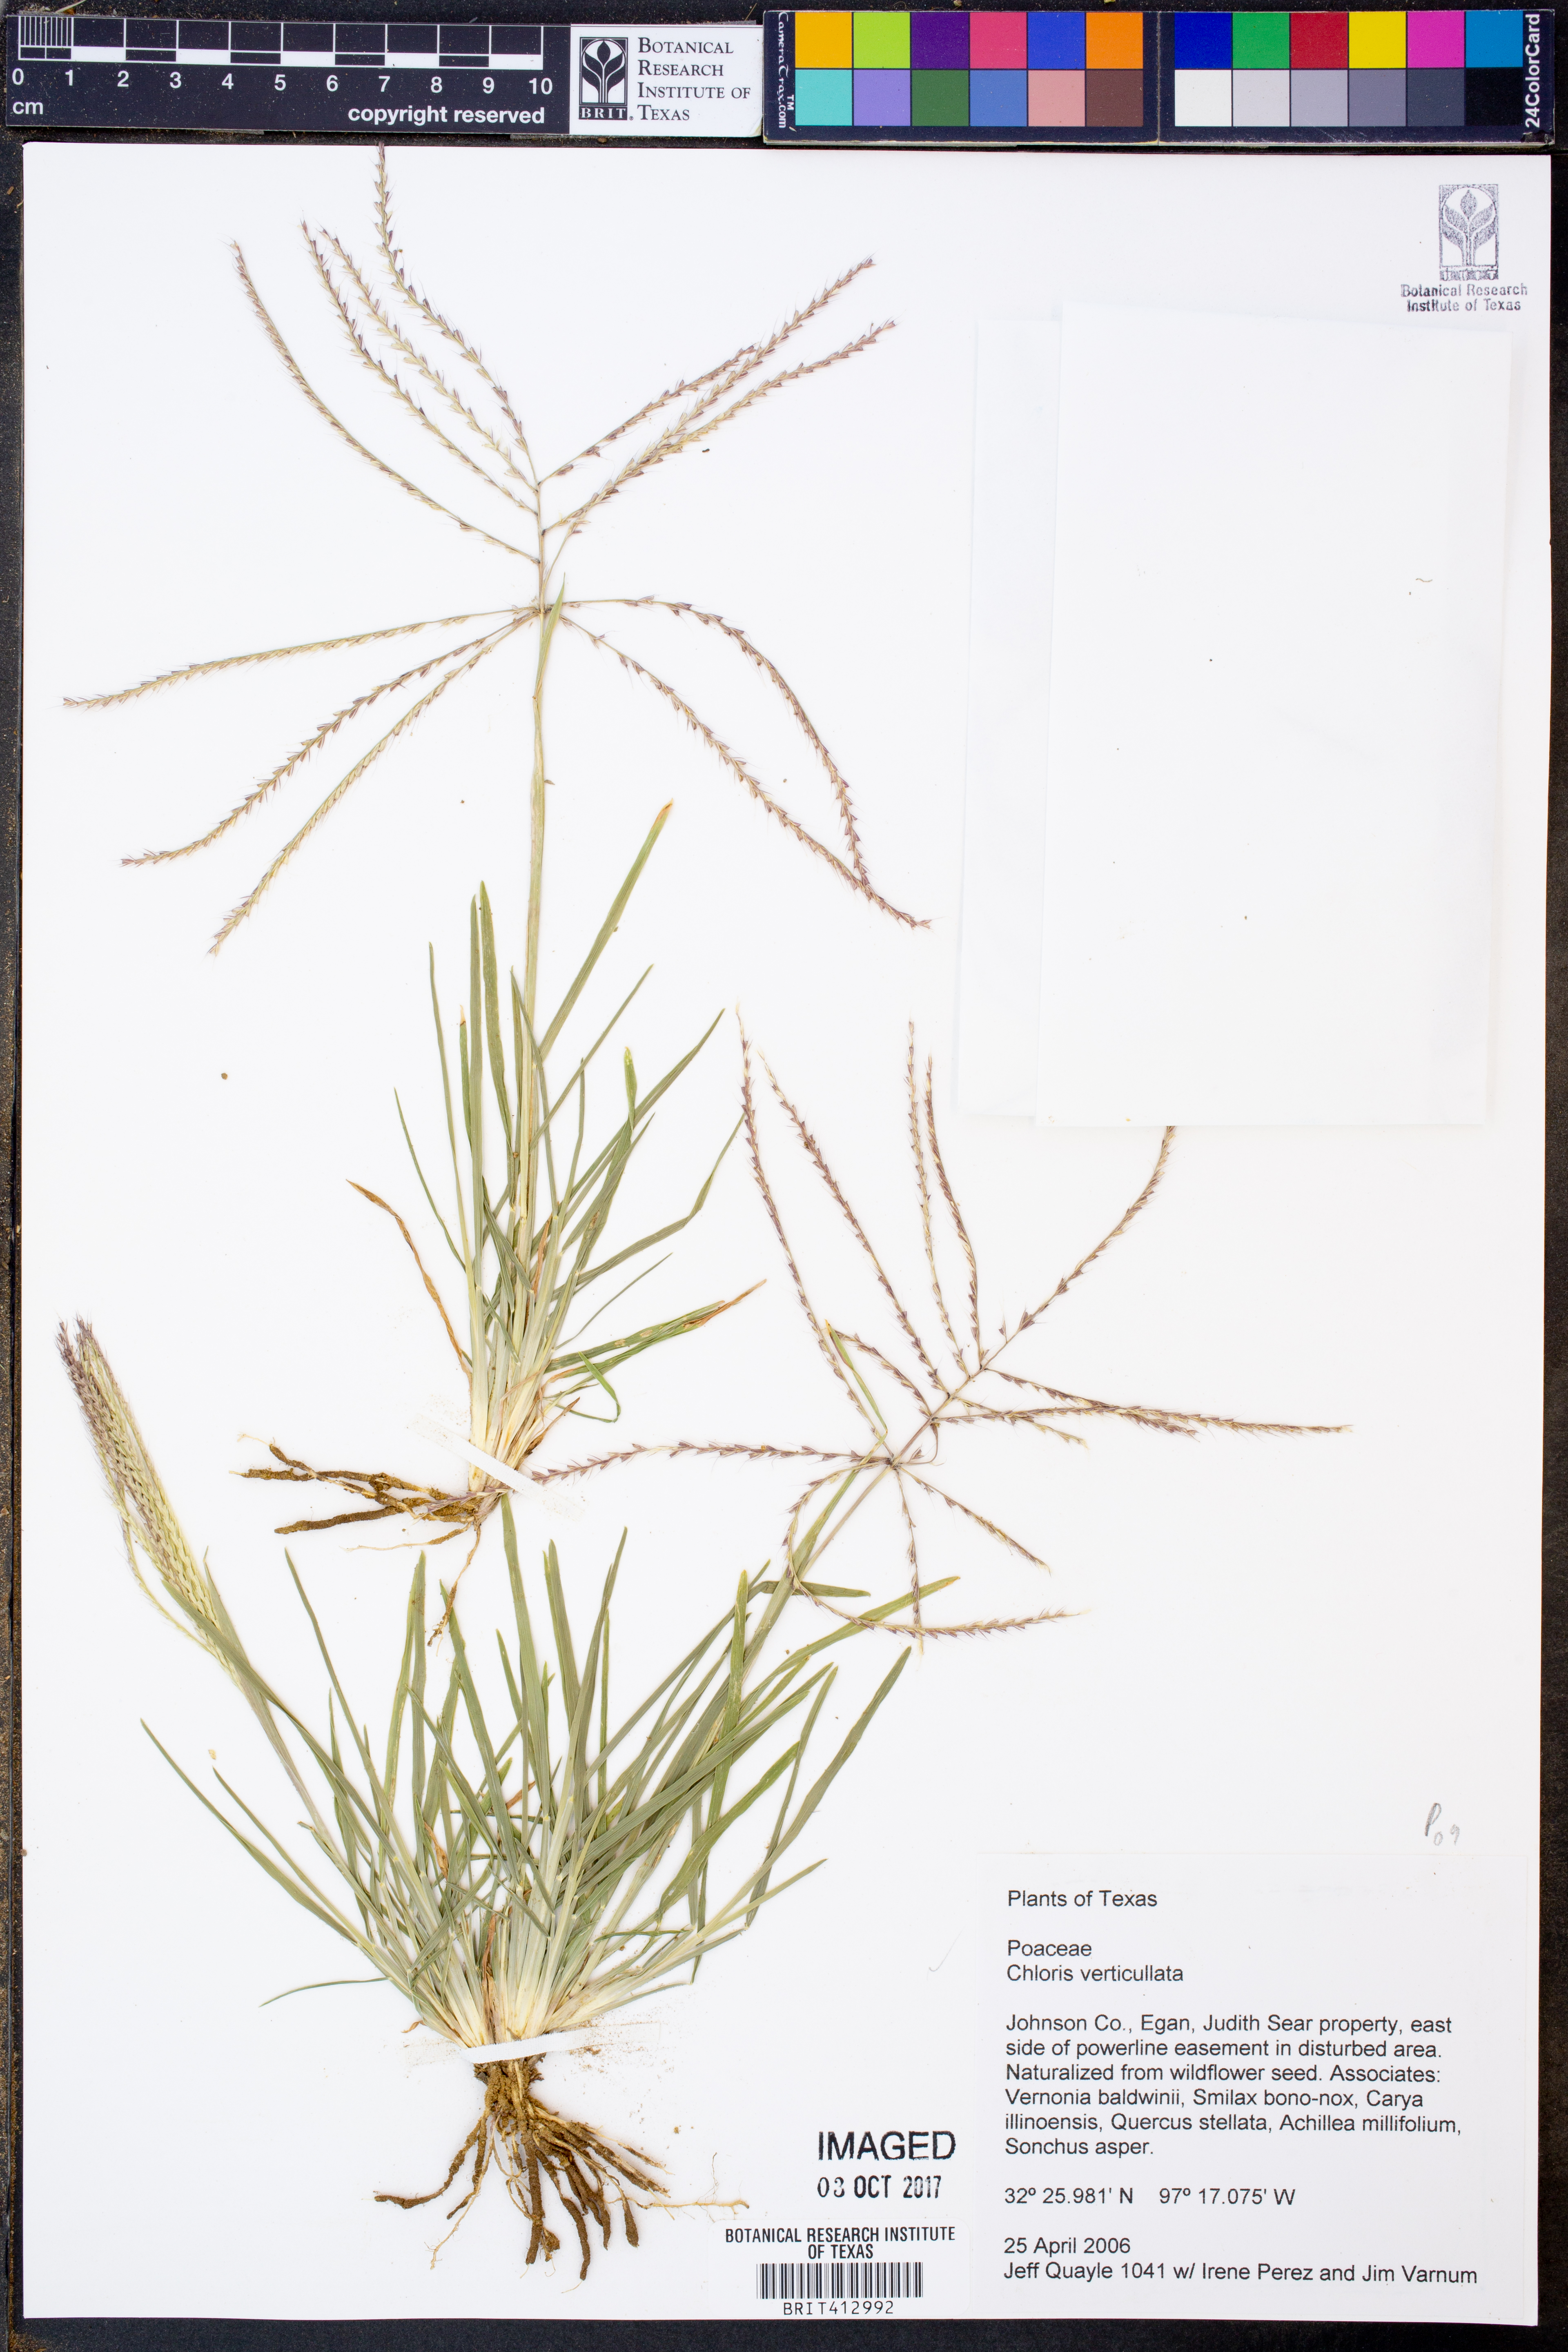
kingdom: Plantae
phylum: Tracheophyta
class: Liliopsida
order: Poales
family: Poaceae
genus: Chloris
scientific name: Chloris verticillata
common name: Tumble windmill grass
